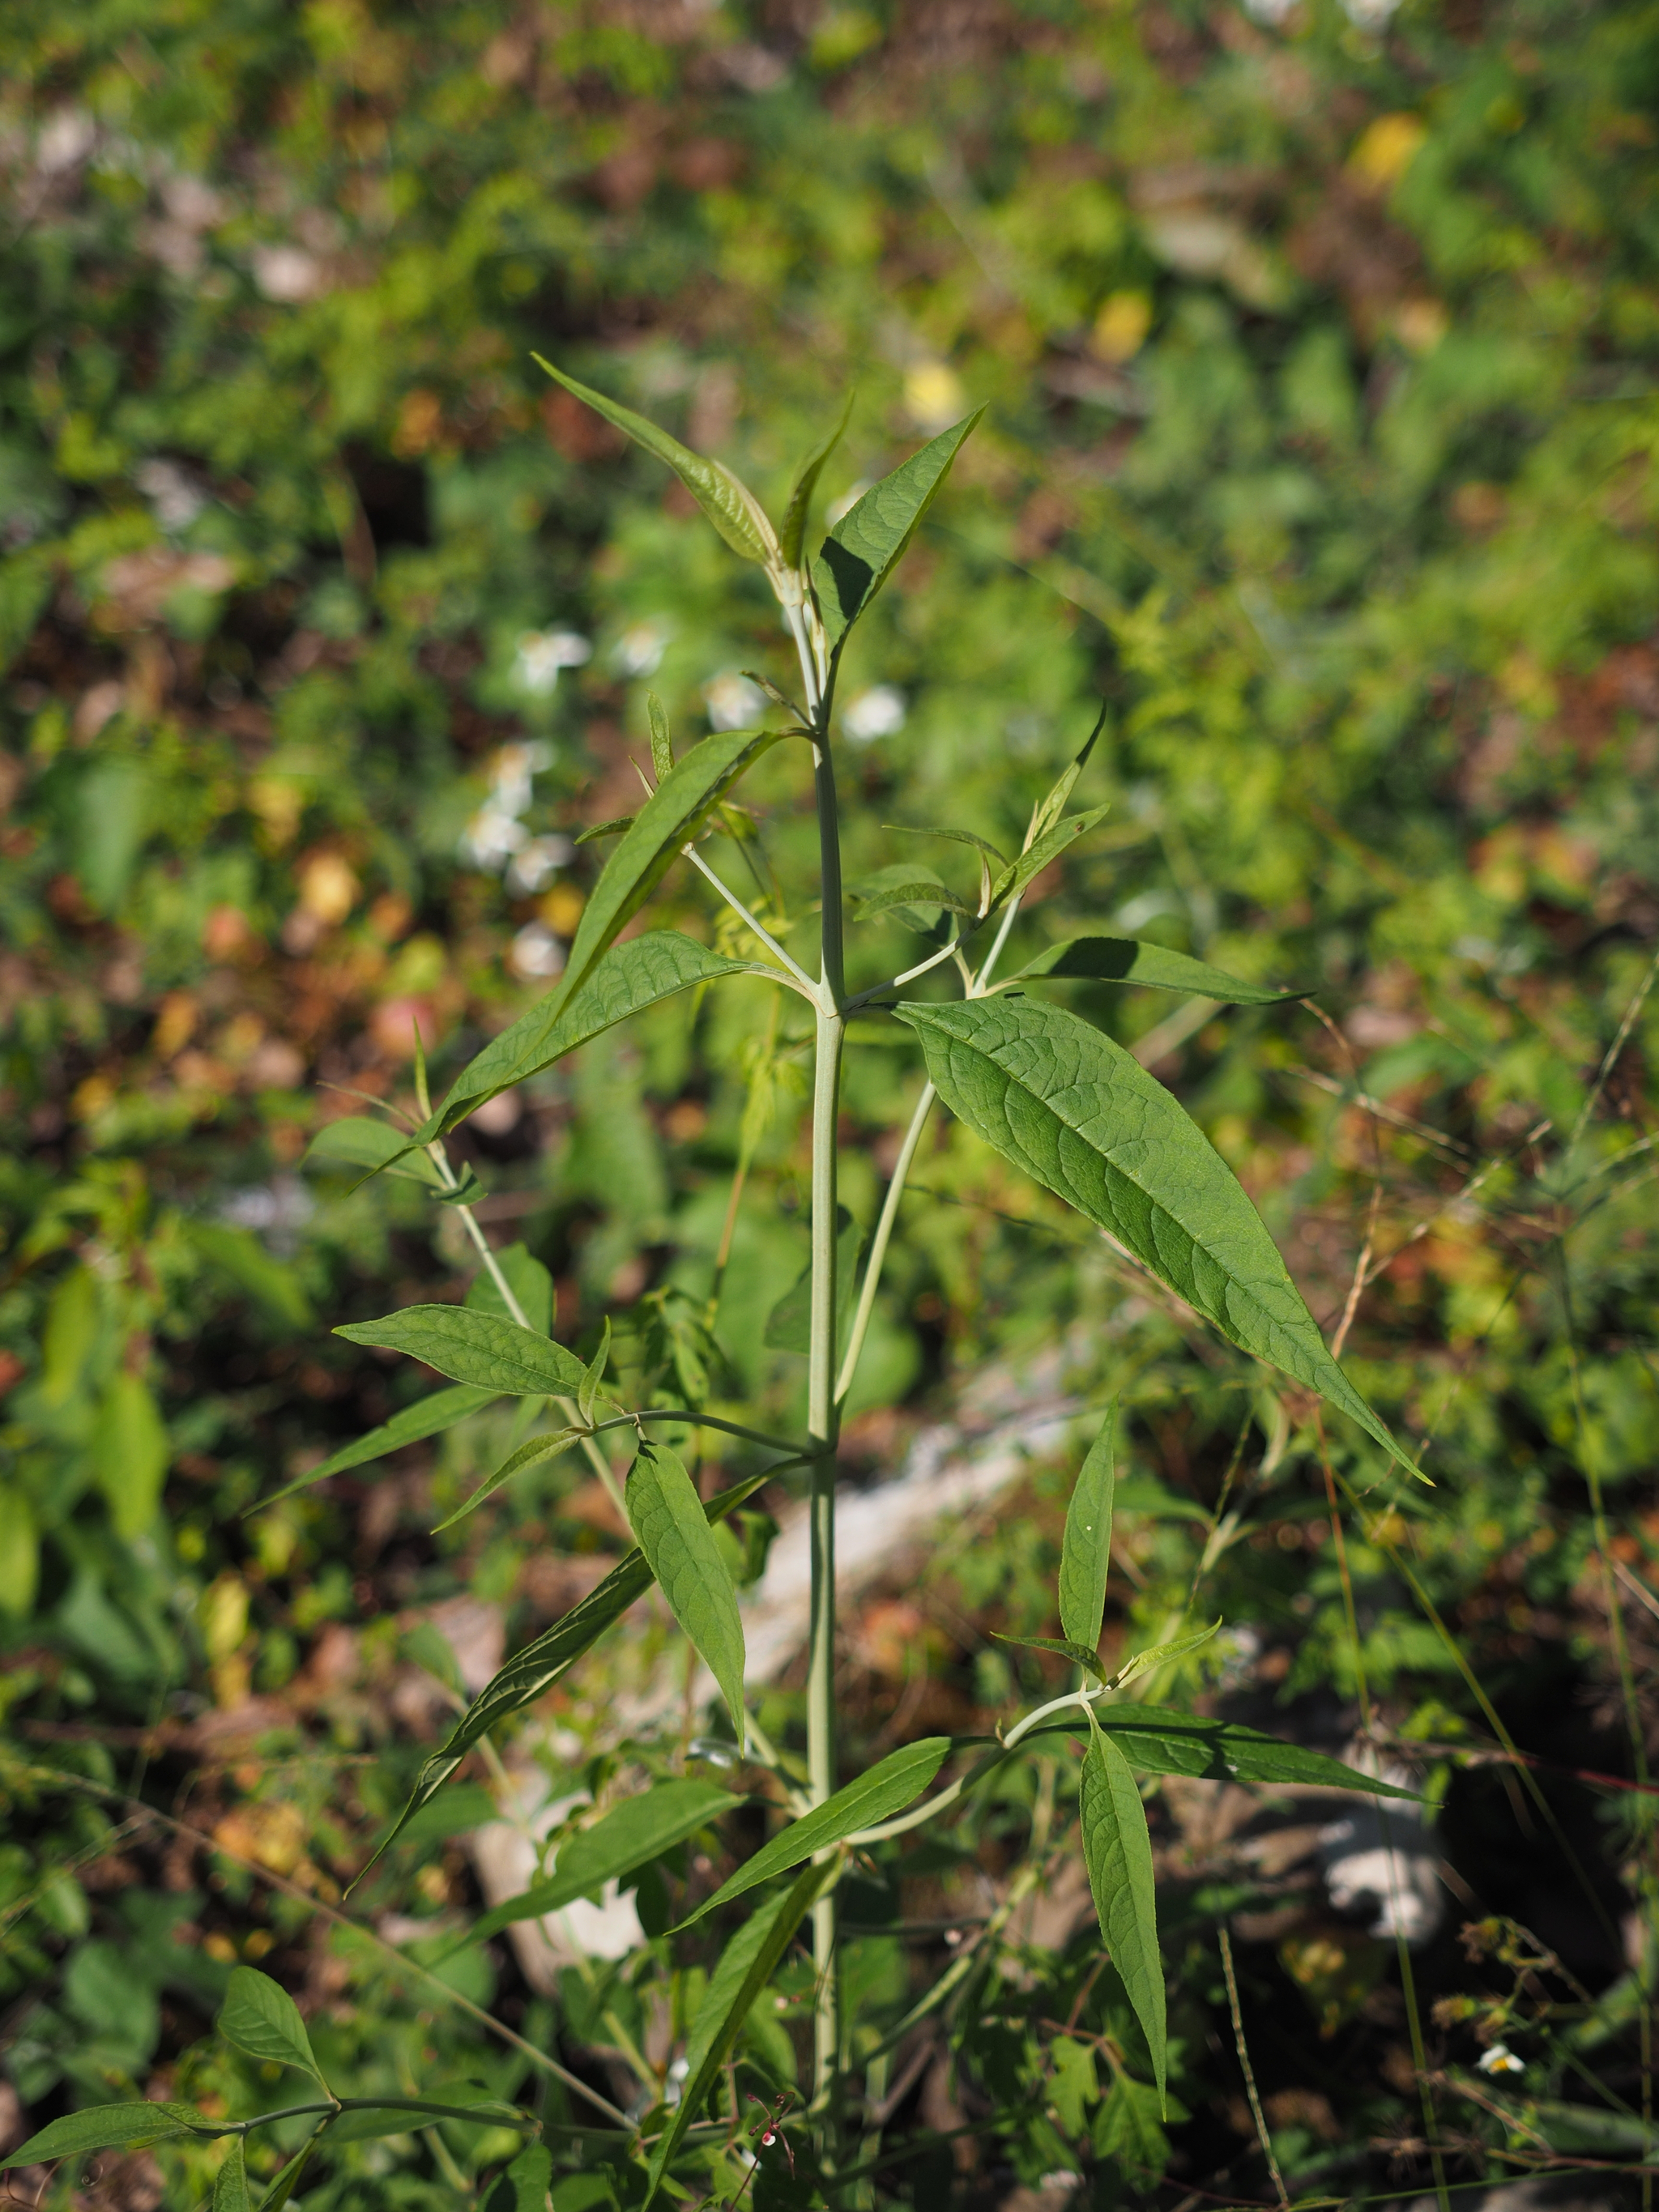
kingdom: Plantae
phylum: Tracheophyta
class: Magnoliopsida
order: Lamiales
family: Scrophulariaceae
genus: Buddleja
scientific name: Buddleja asiatica
